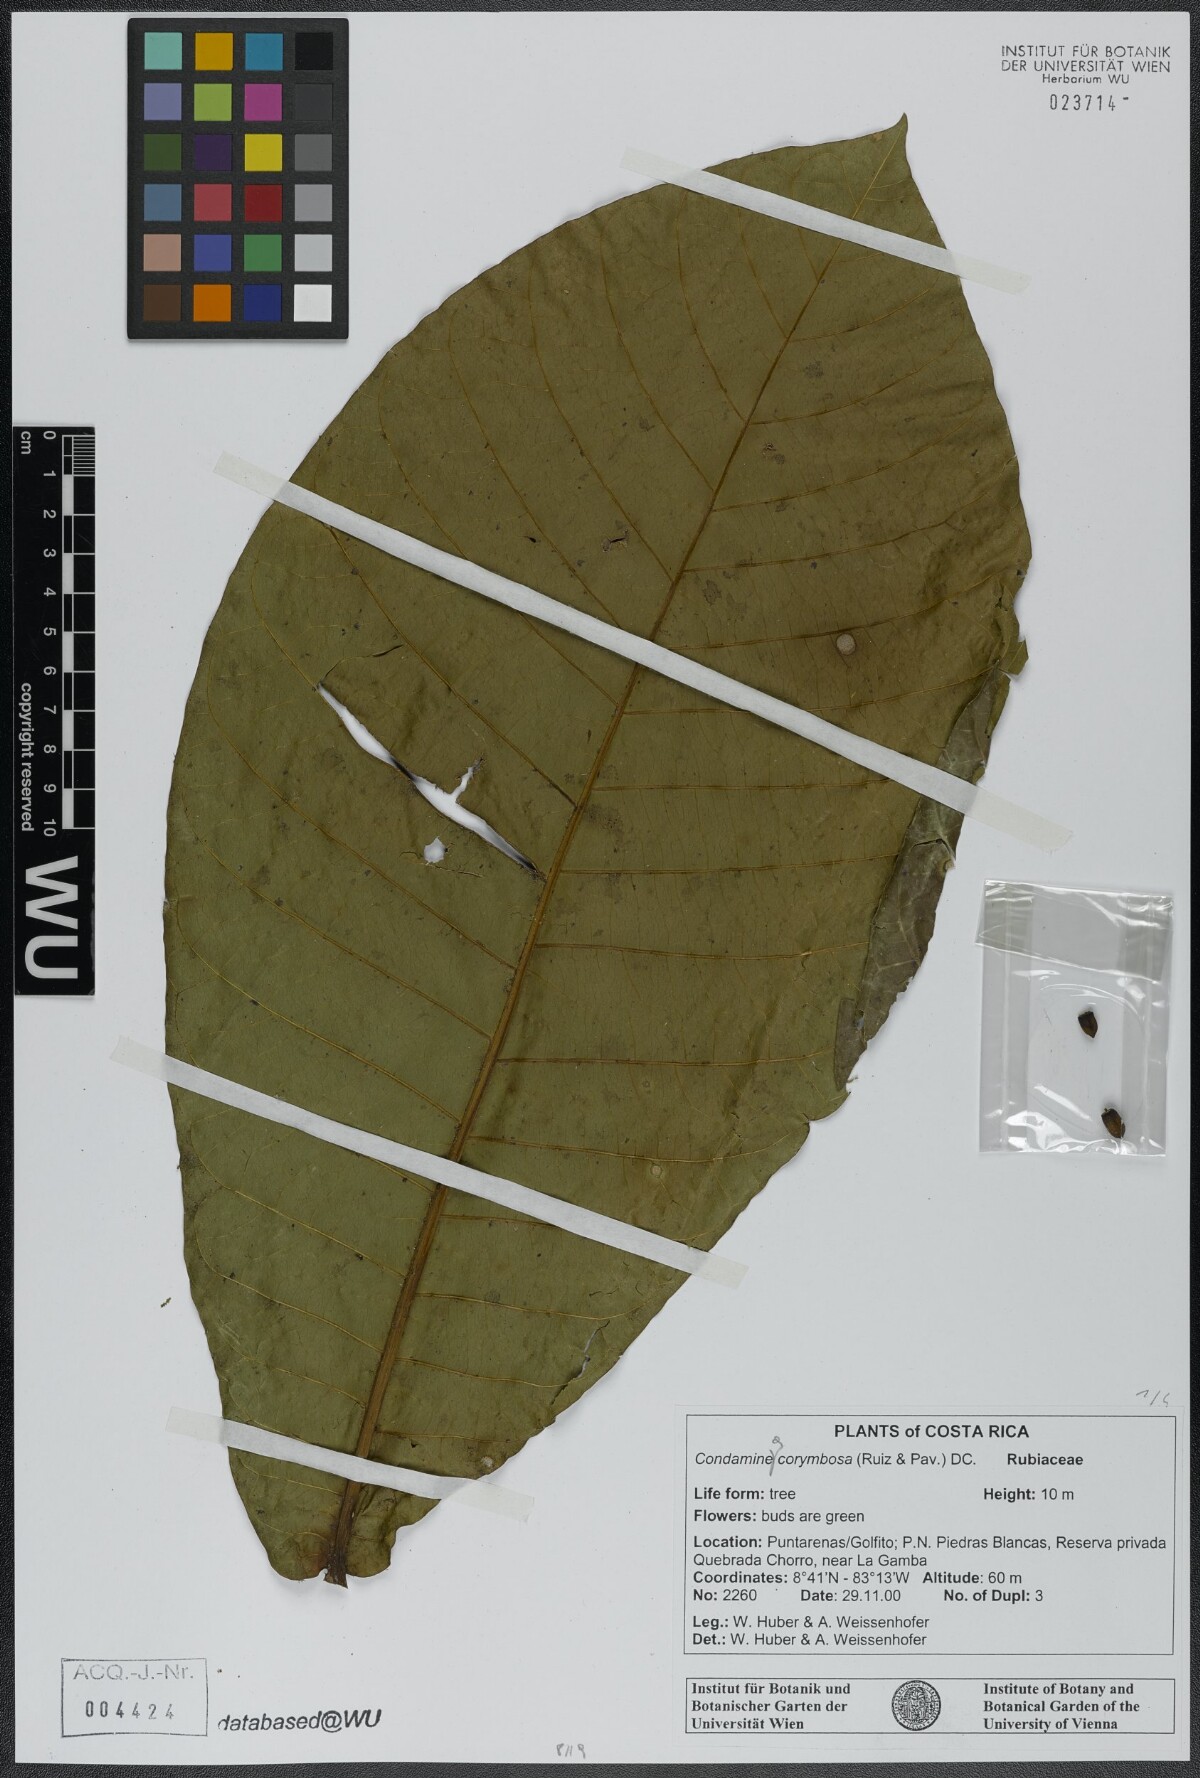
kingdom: Plantae
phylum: Tracheophyta
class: Magnoliopsida
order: Gentianales
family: Rubiaceae
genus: Condaminea
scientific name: Condaminea corymbosa
